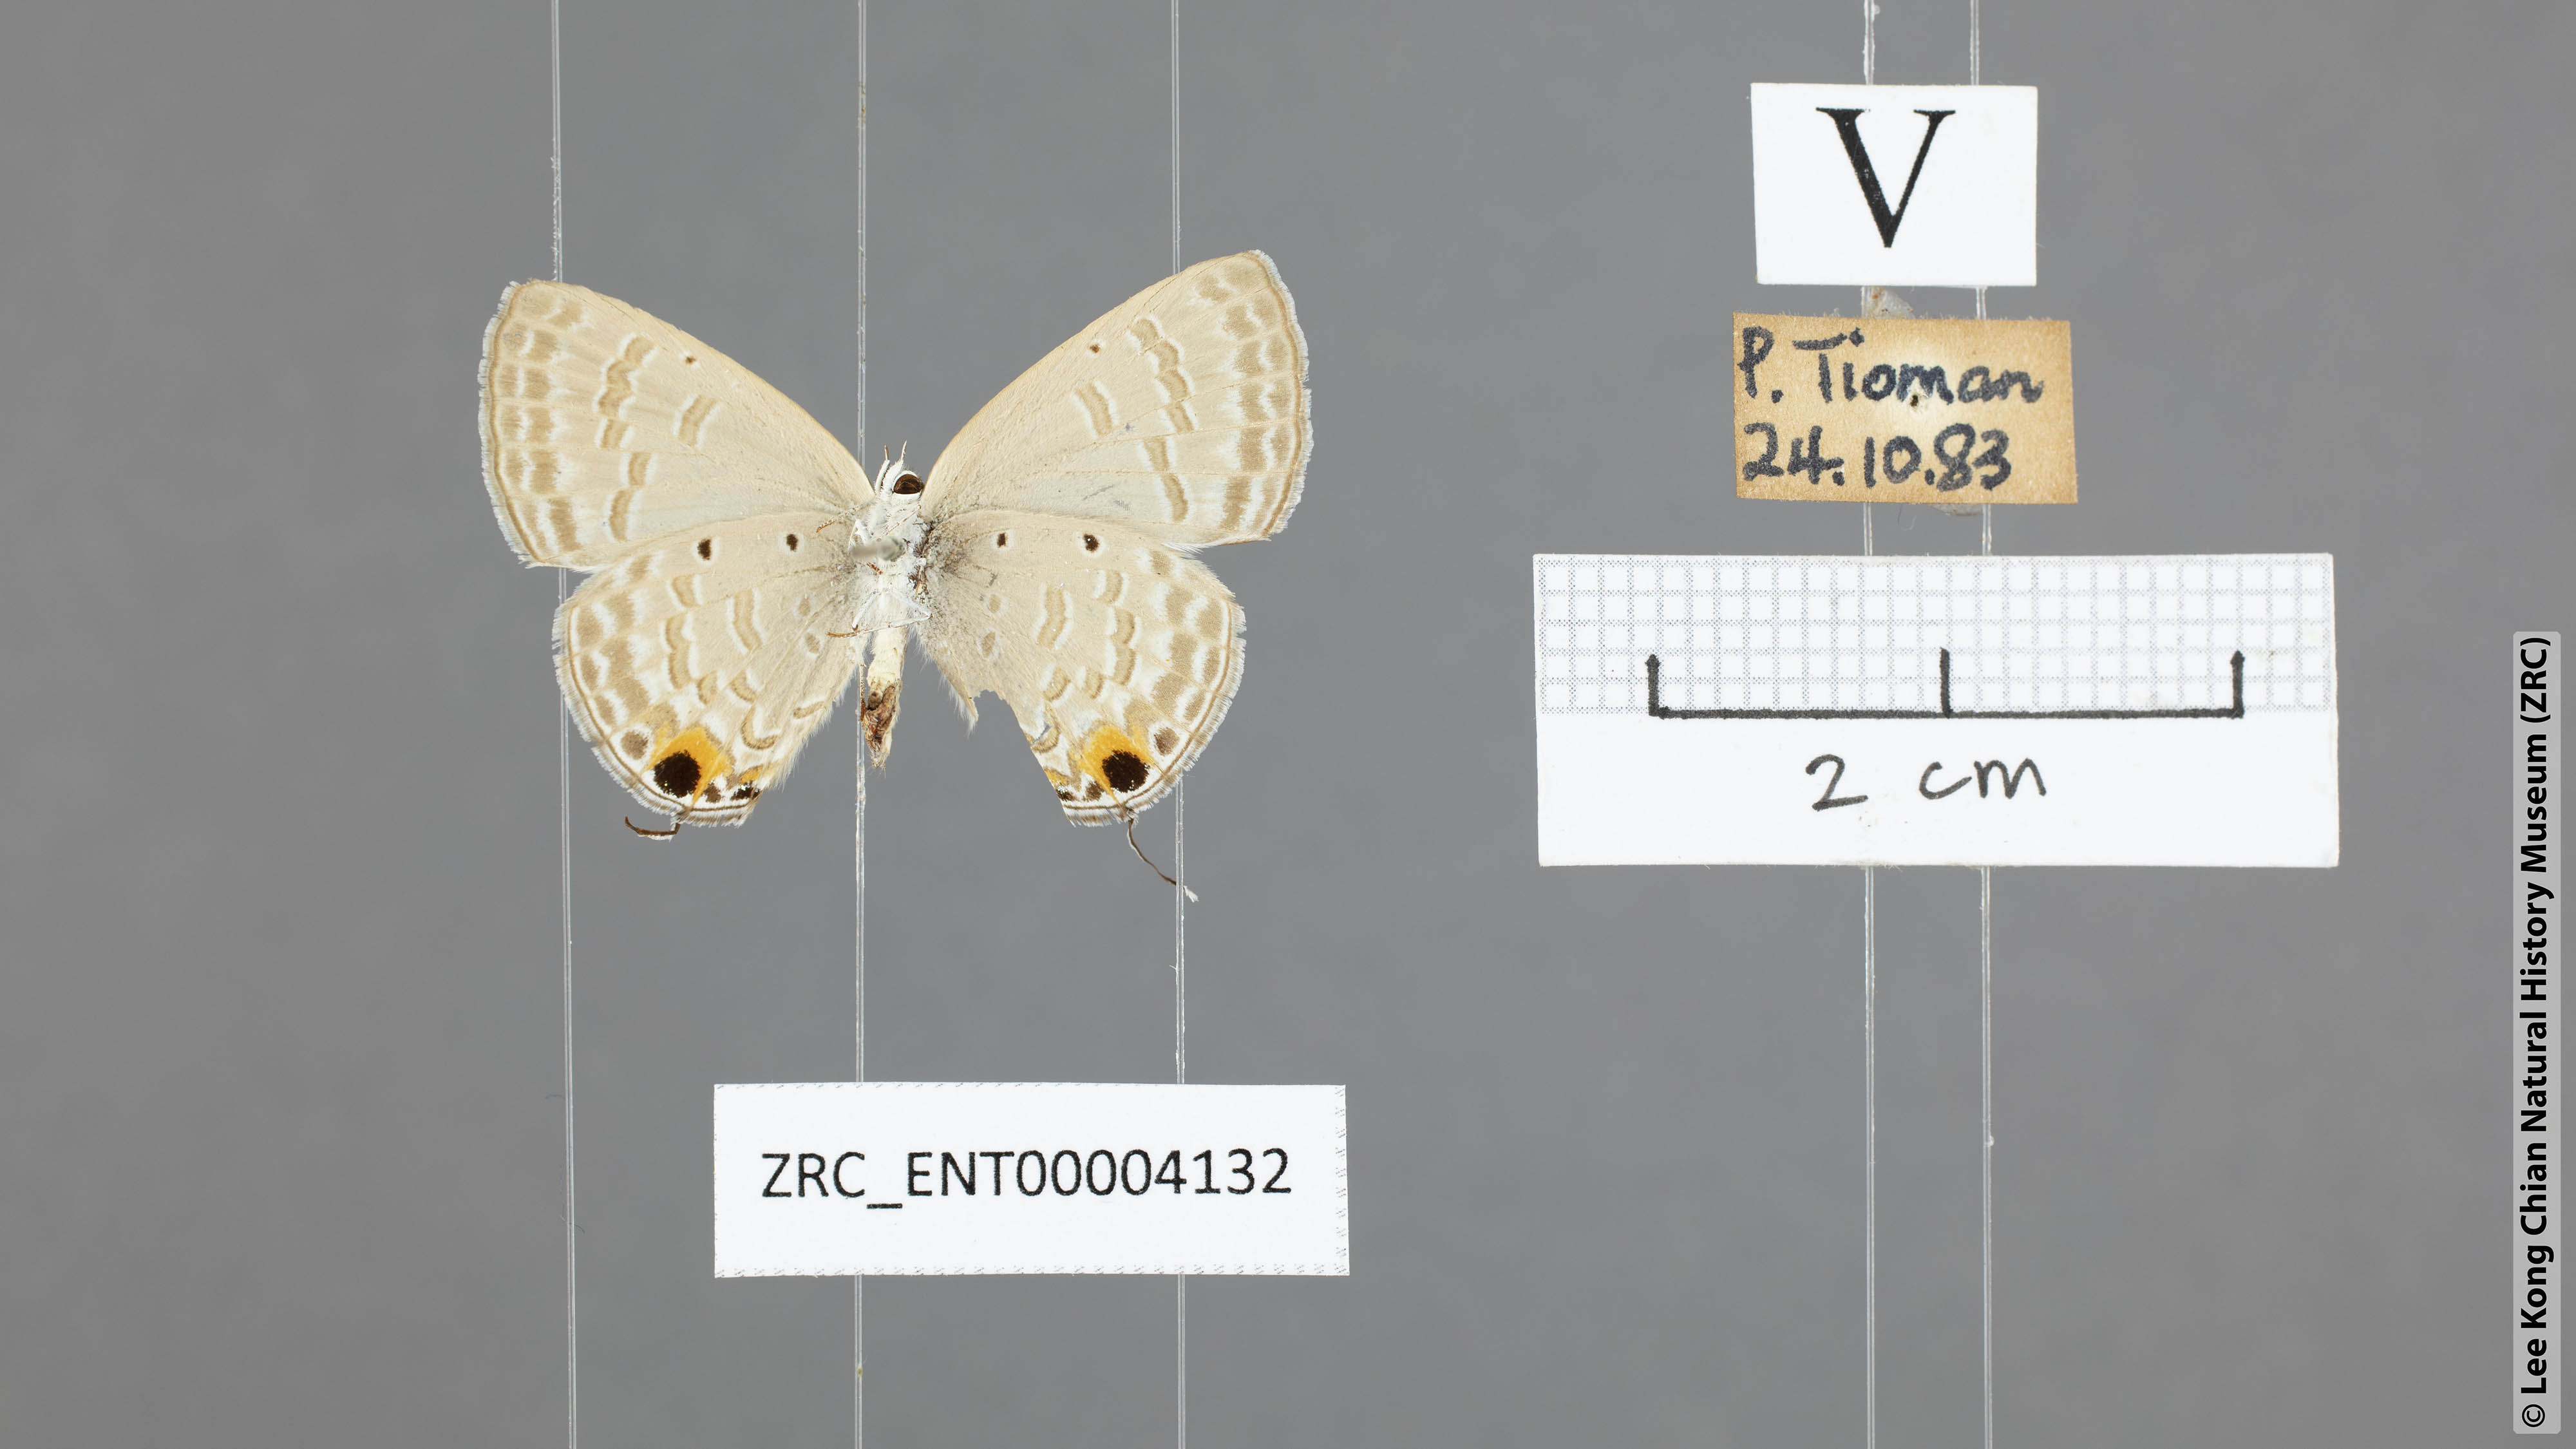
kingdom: Animalia
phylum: Arthropoda
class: Insecta
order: Lepidoptera
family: Lycaenidae
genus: Catochrysops
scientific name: Catochrysops strabo
